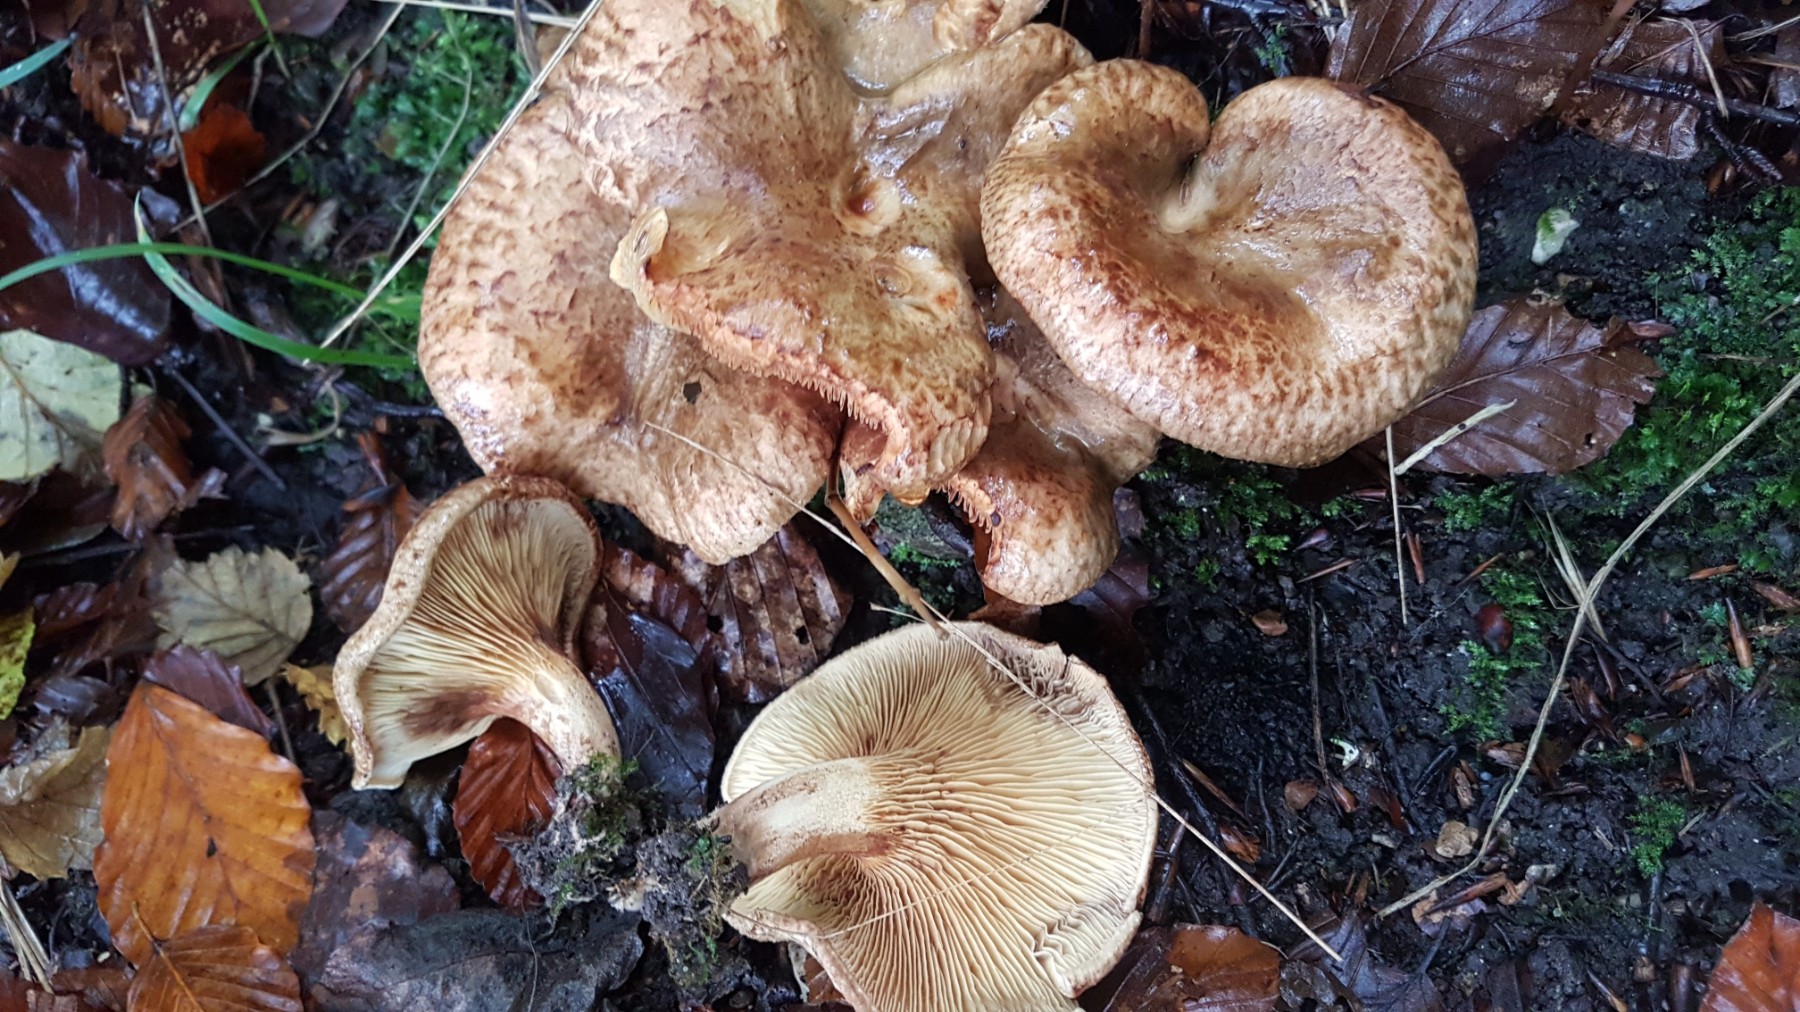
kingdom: Fungi
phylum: Basidiomycota
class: Agaricomycetes
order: Boletales
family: Paxillaceae
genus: Paxillus
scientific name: Paxillus rubicundulus
